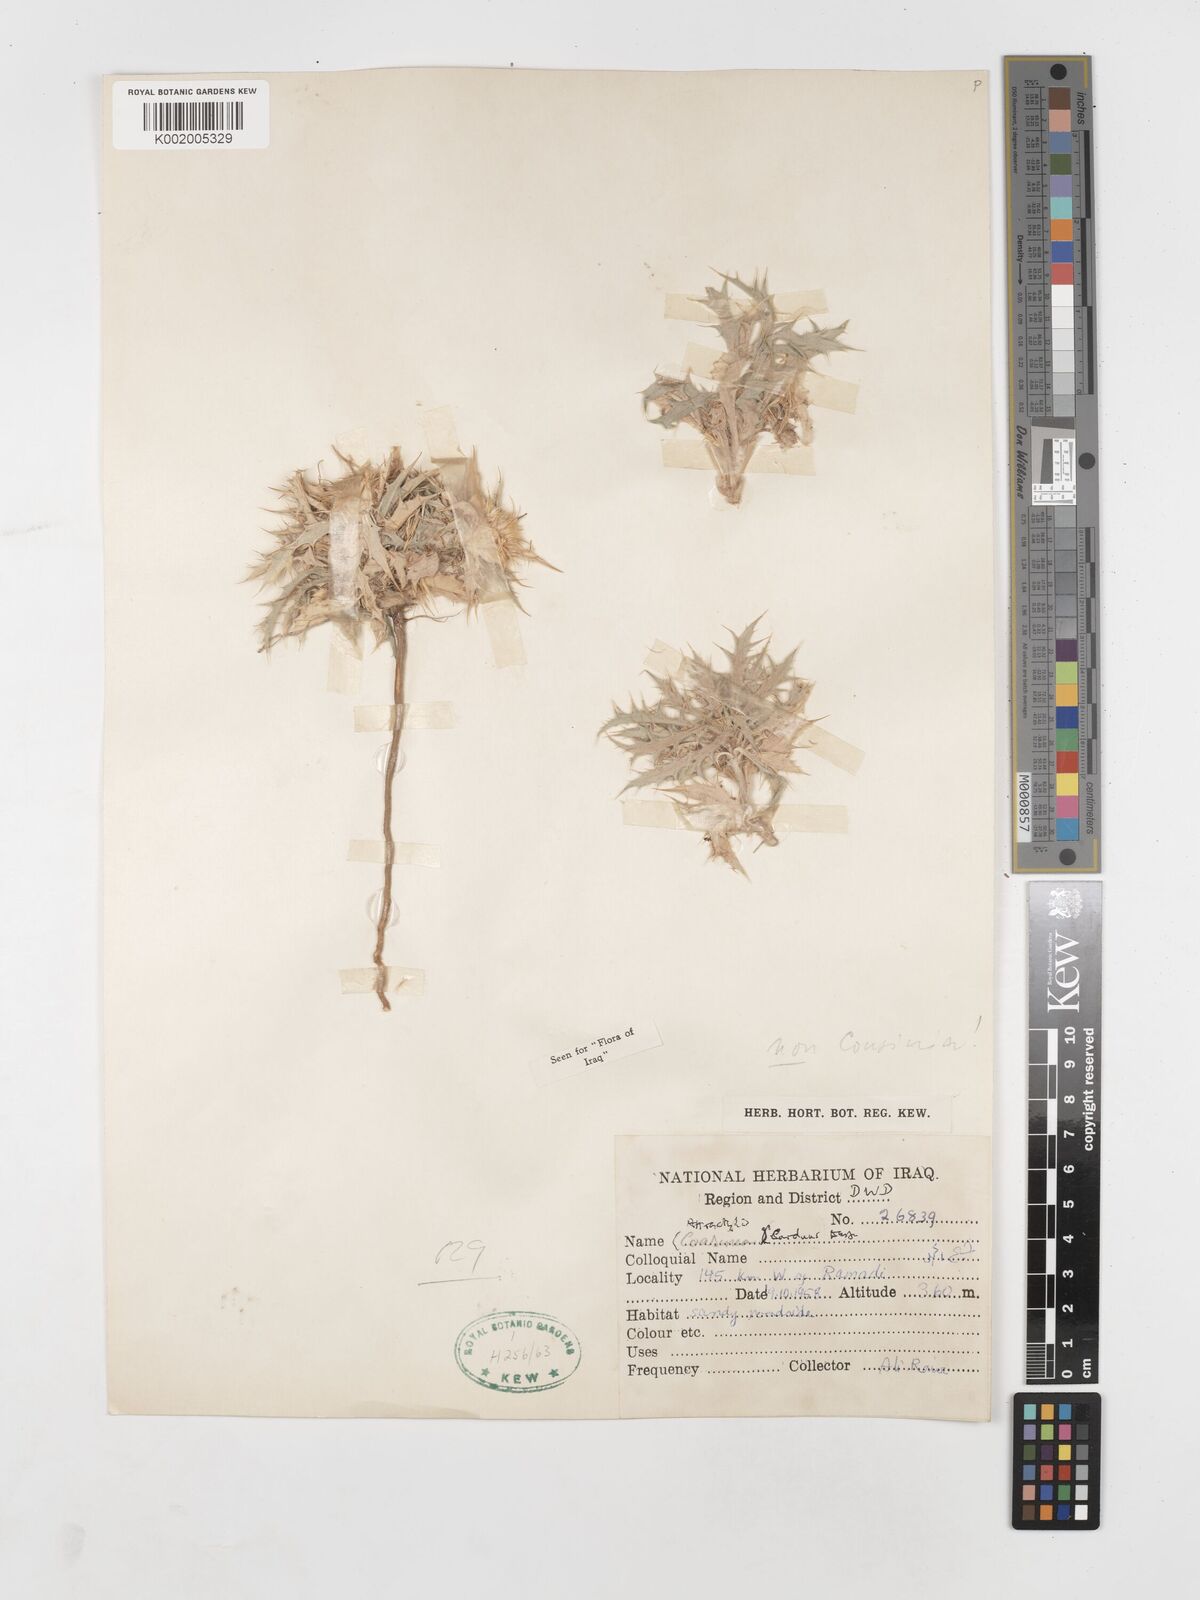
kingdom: Plantae
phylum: Tracheophyta
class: Magnoliopsida
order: Asterales
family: Asteraceae
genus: Atractylis
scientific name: Atractylis carduus
